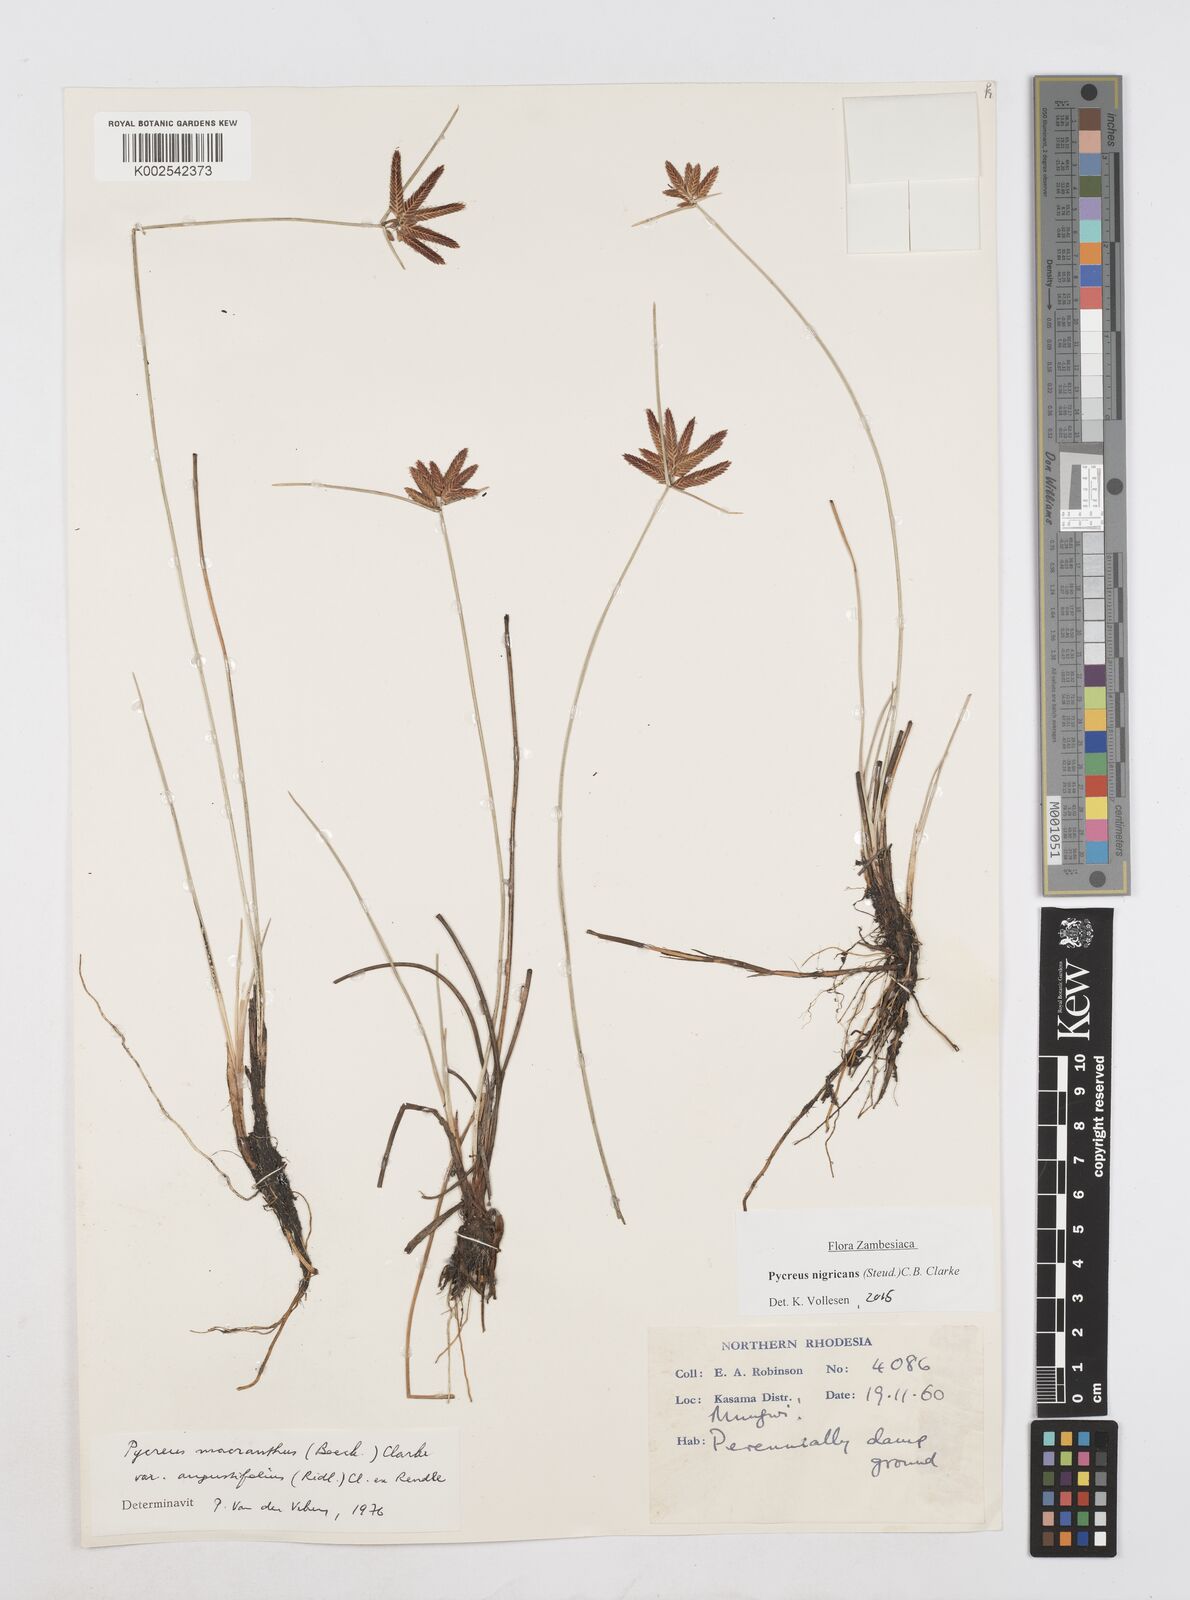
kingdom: Plantae
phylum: Tracheophyta
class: Liliopsida
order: Poales
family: Cyperaceae
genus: Cyperus
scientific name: Cyperus nigricans
